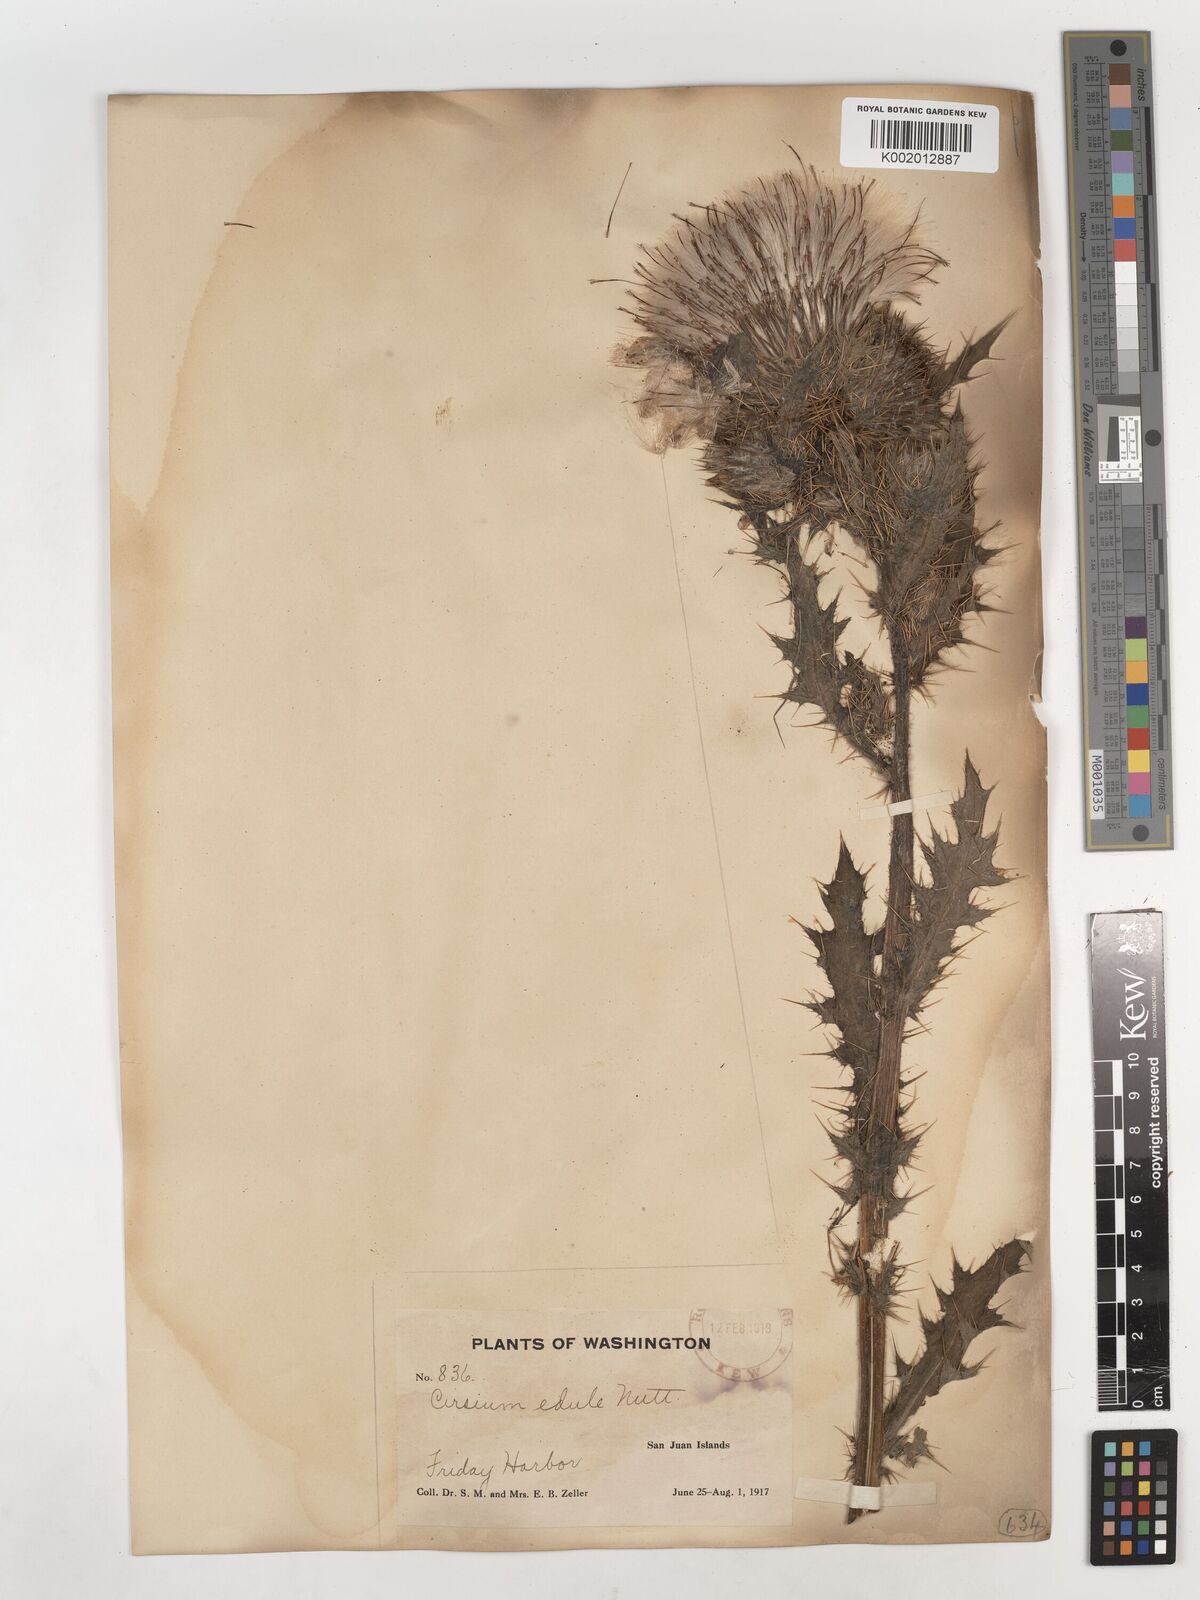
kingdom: Plantae
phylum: Tracheophyta
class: Magnoliopsida
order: Asterales
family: Asteraceae
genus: Cirsium
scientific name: Cirsium edule
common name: Indian thistle
